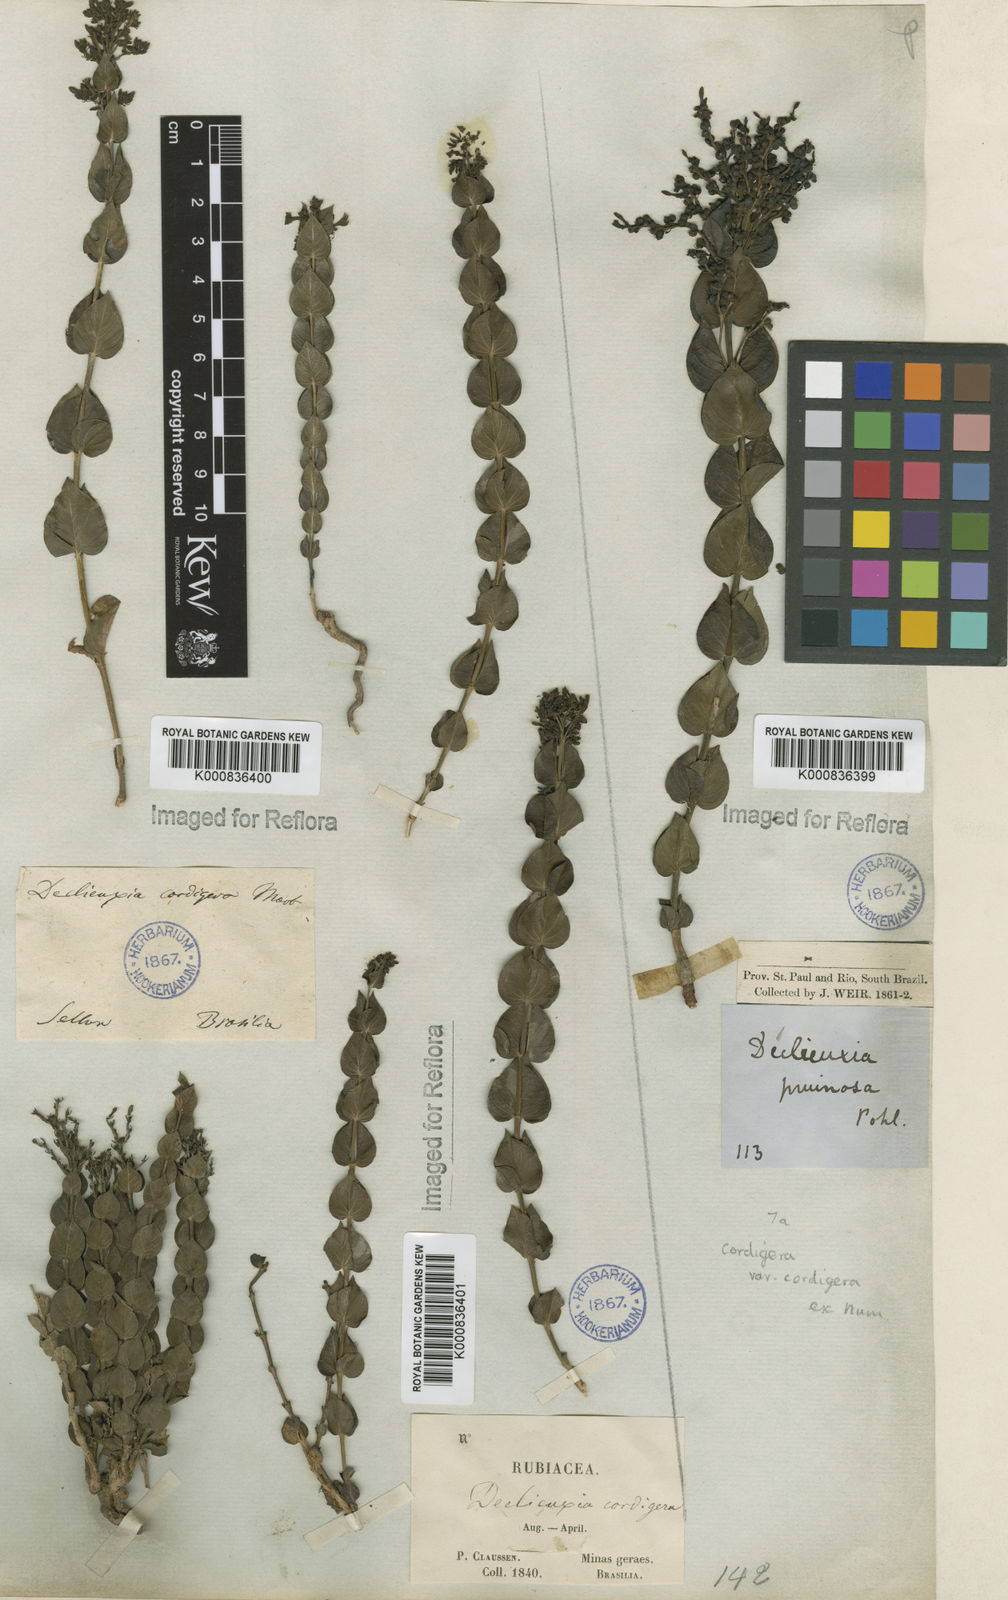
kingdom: Plantae
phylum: Tracheophyta
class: Magnoliopsida
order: Gentianales
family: Rubiaceae
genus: Declieuxia
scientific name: Declieuxia cordigera
